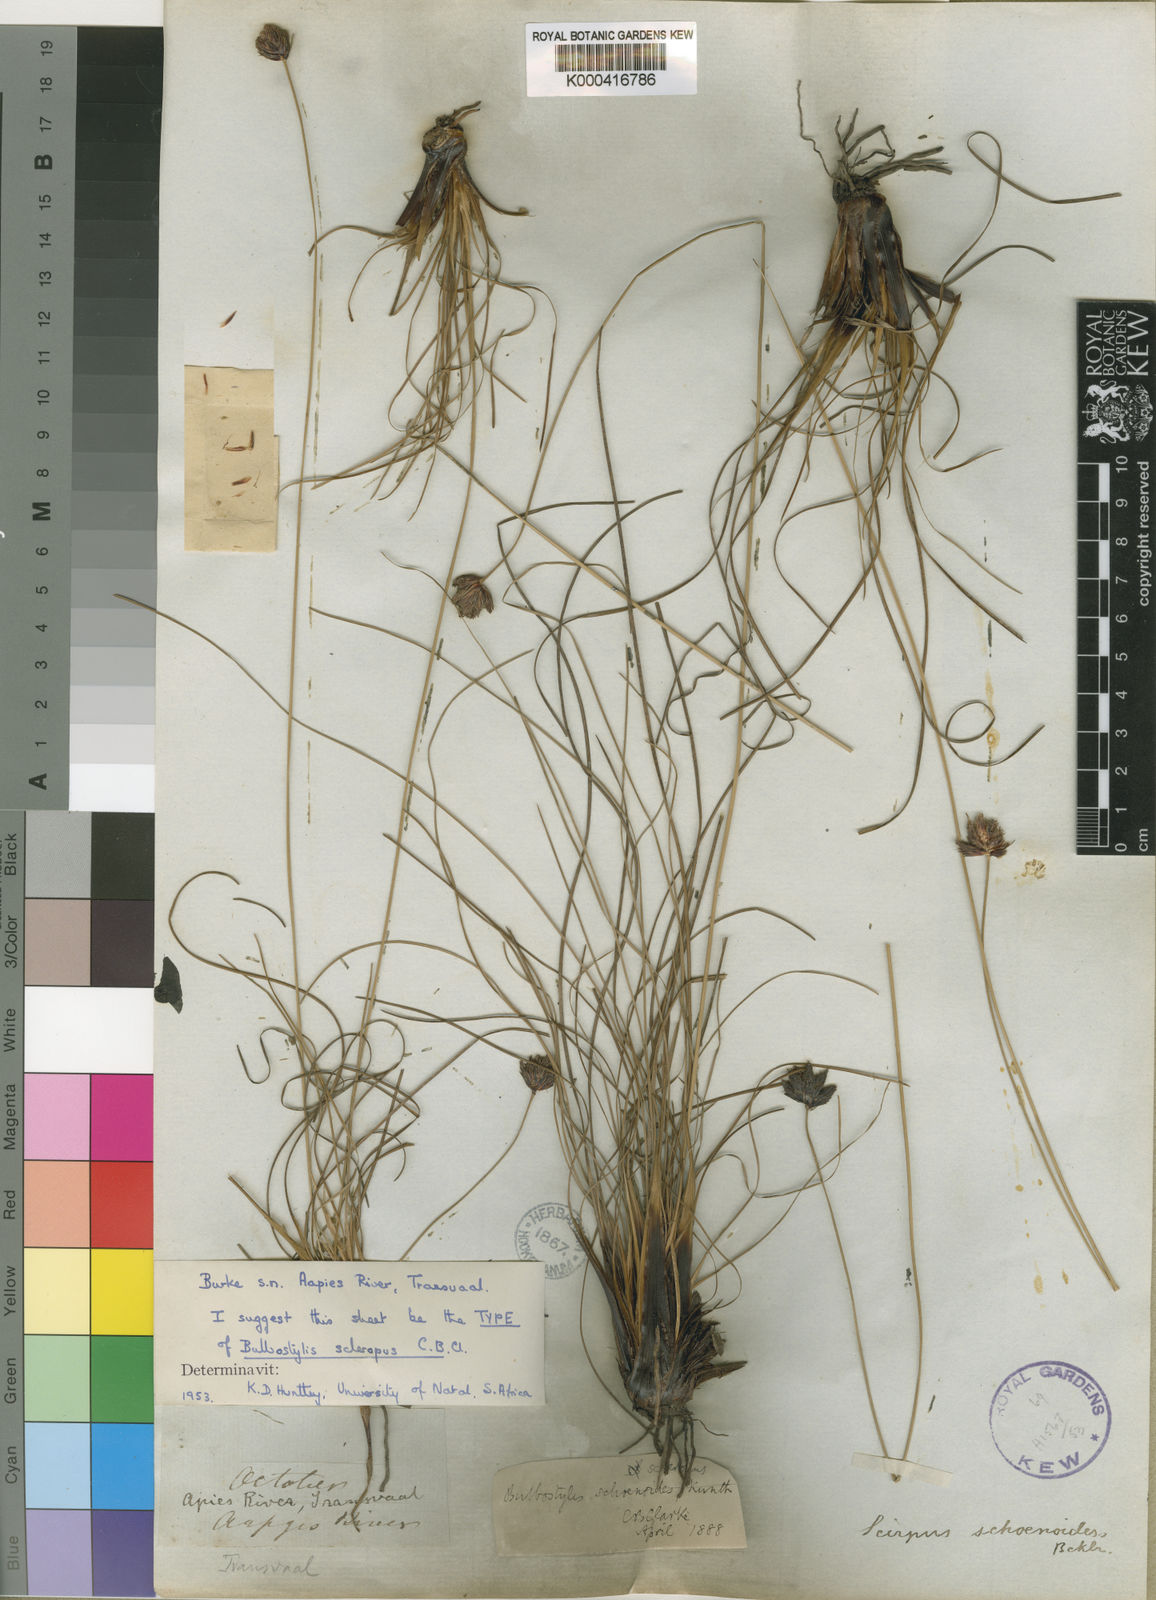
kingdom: Plantae
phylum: Tracheophyta
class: Liliopsida
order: Poales
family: Cyperaceae
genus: Bulbostylis
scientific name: Bulbostylis schoenoides
